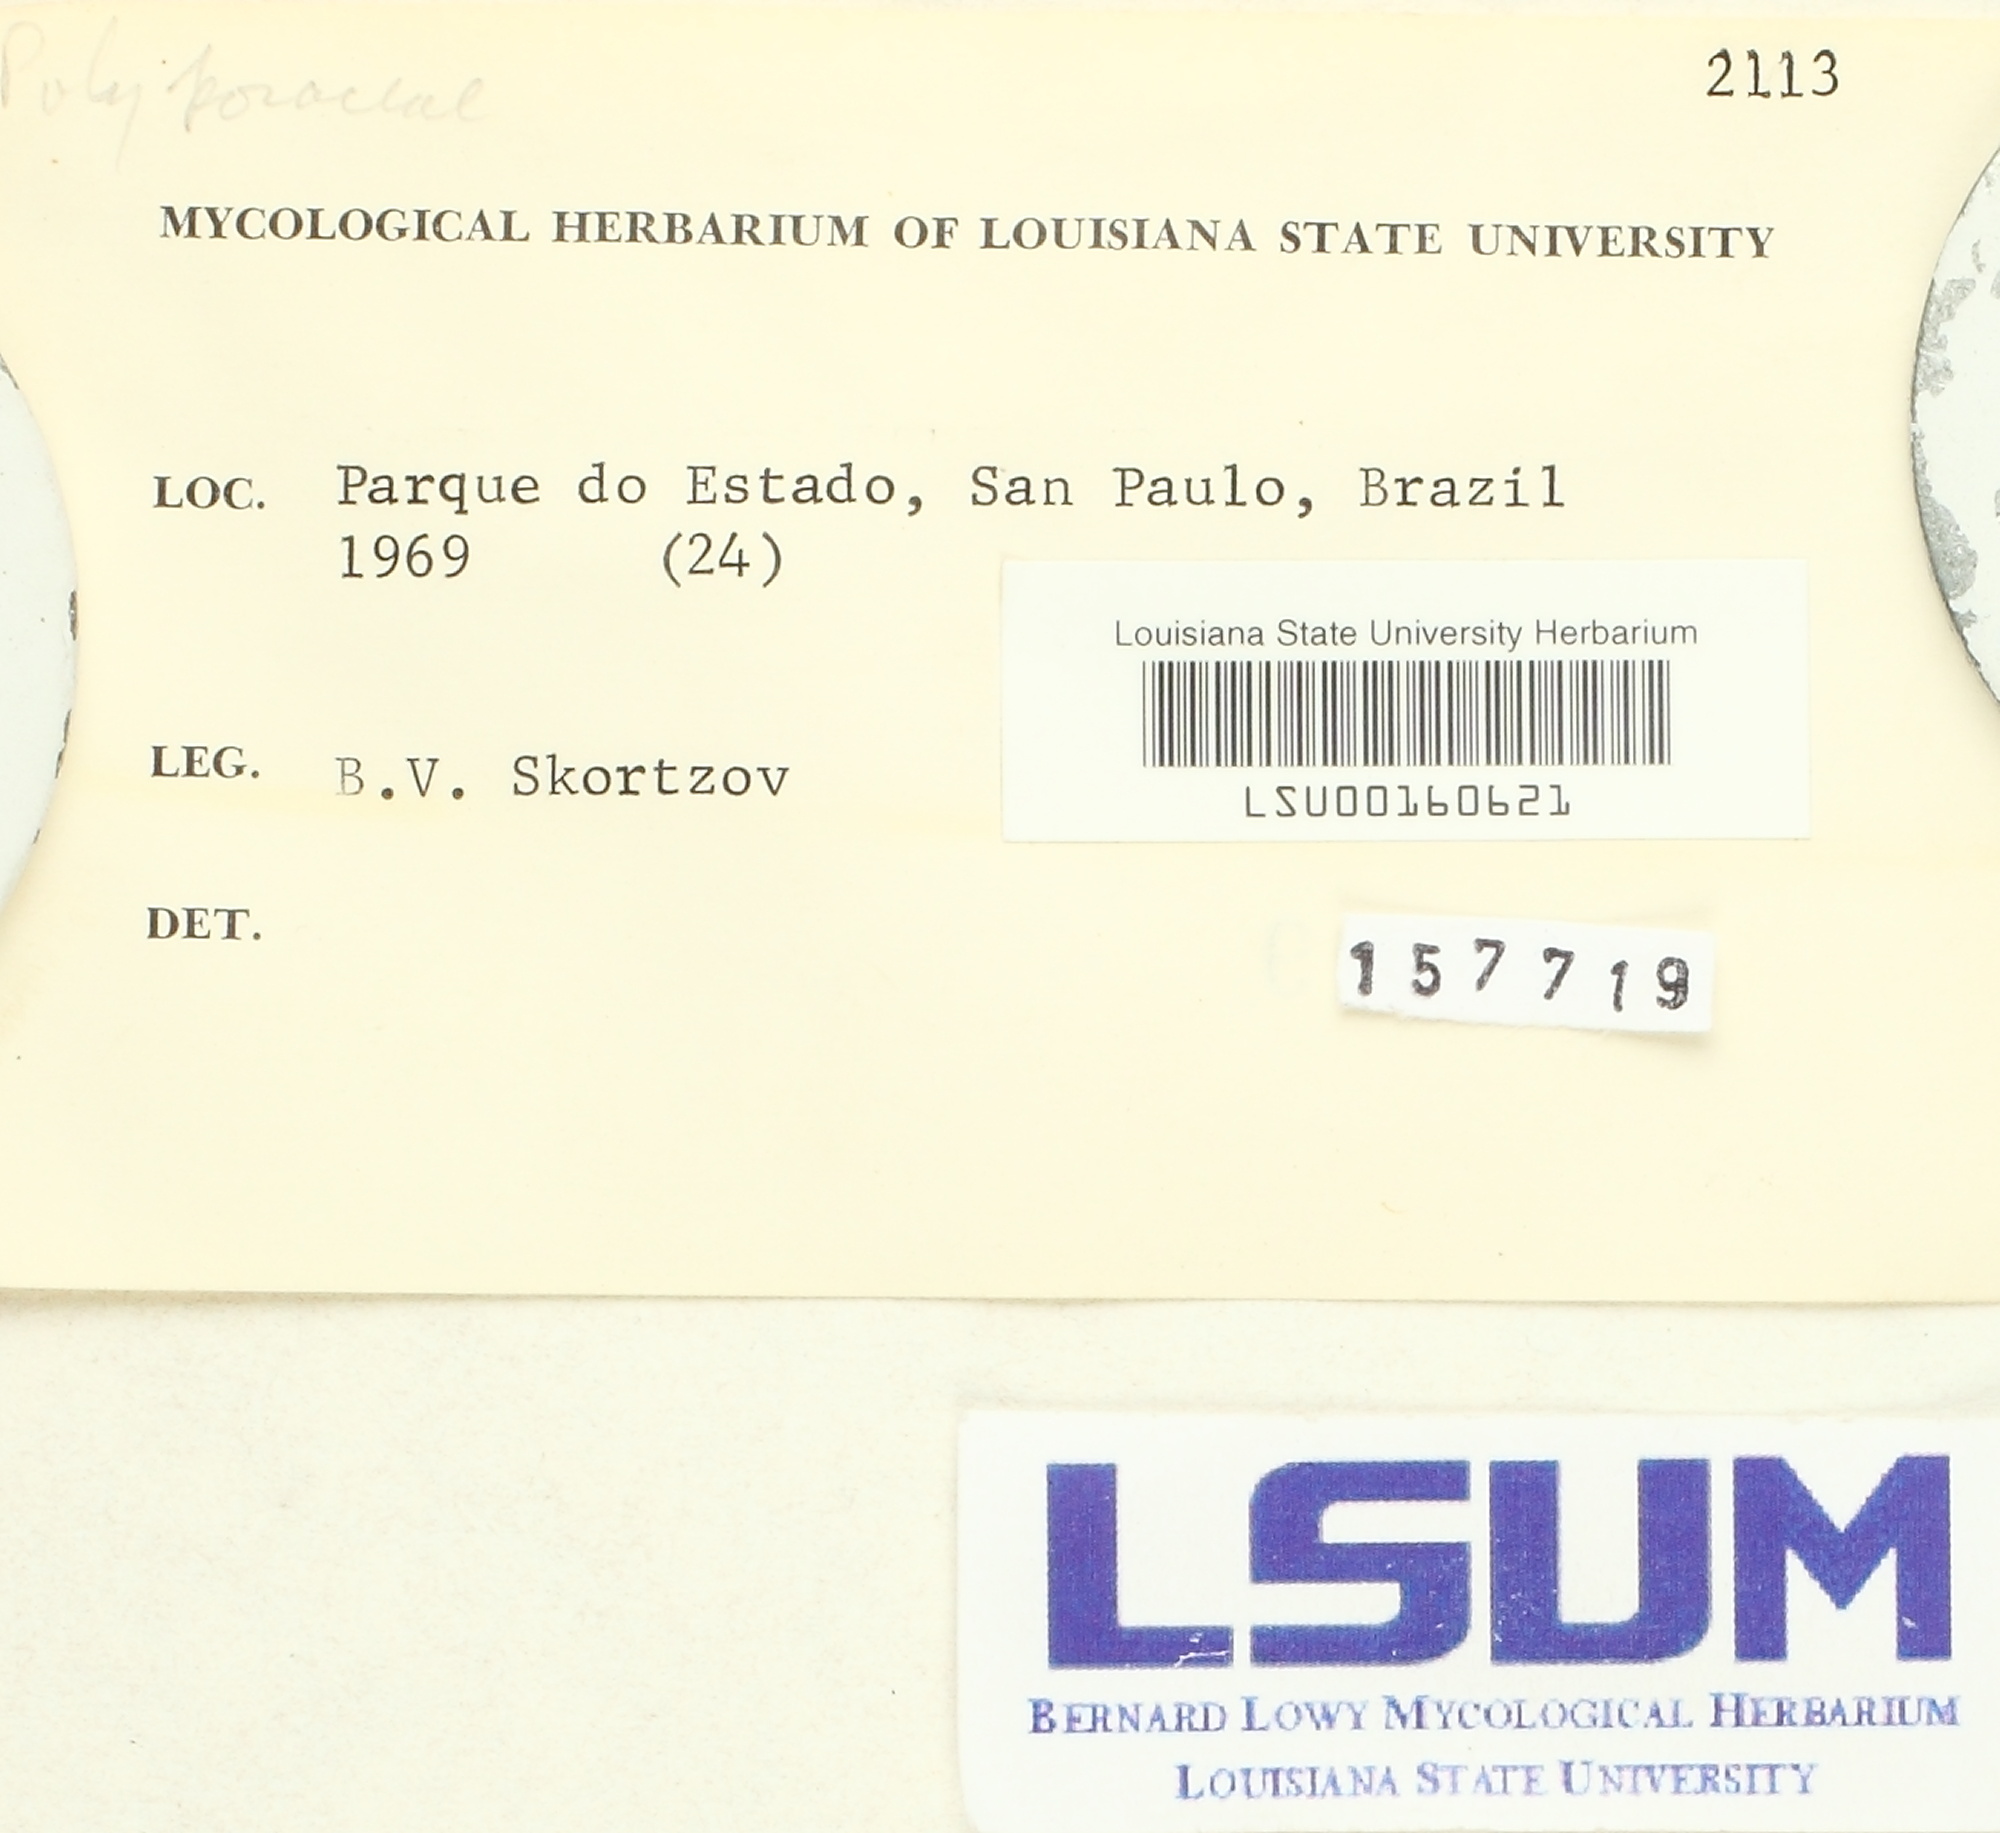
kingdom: Fungi
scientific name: Fungi
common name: Fungi
